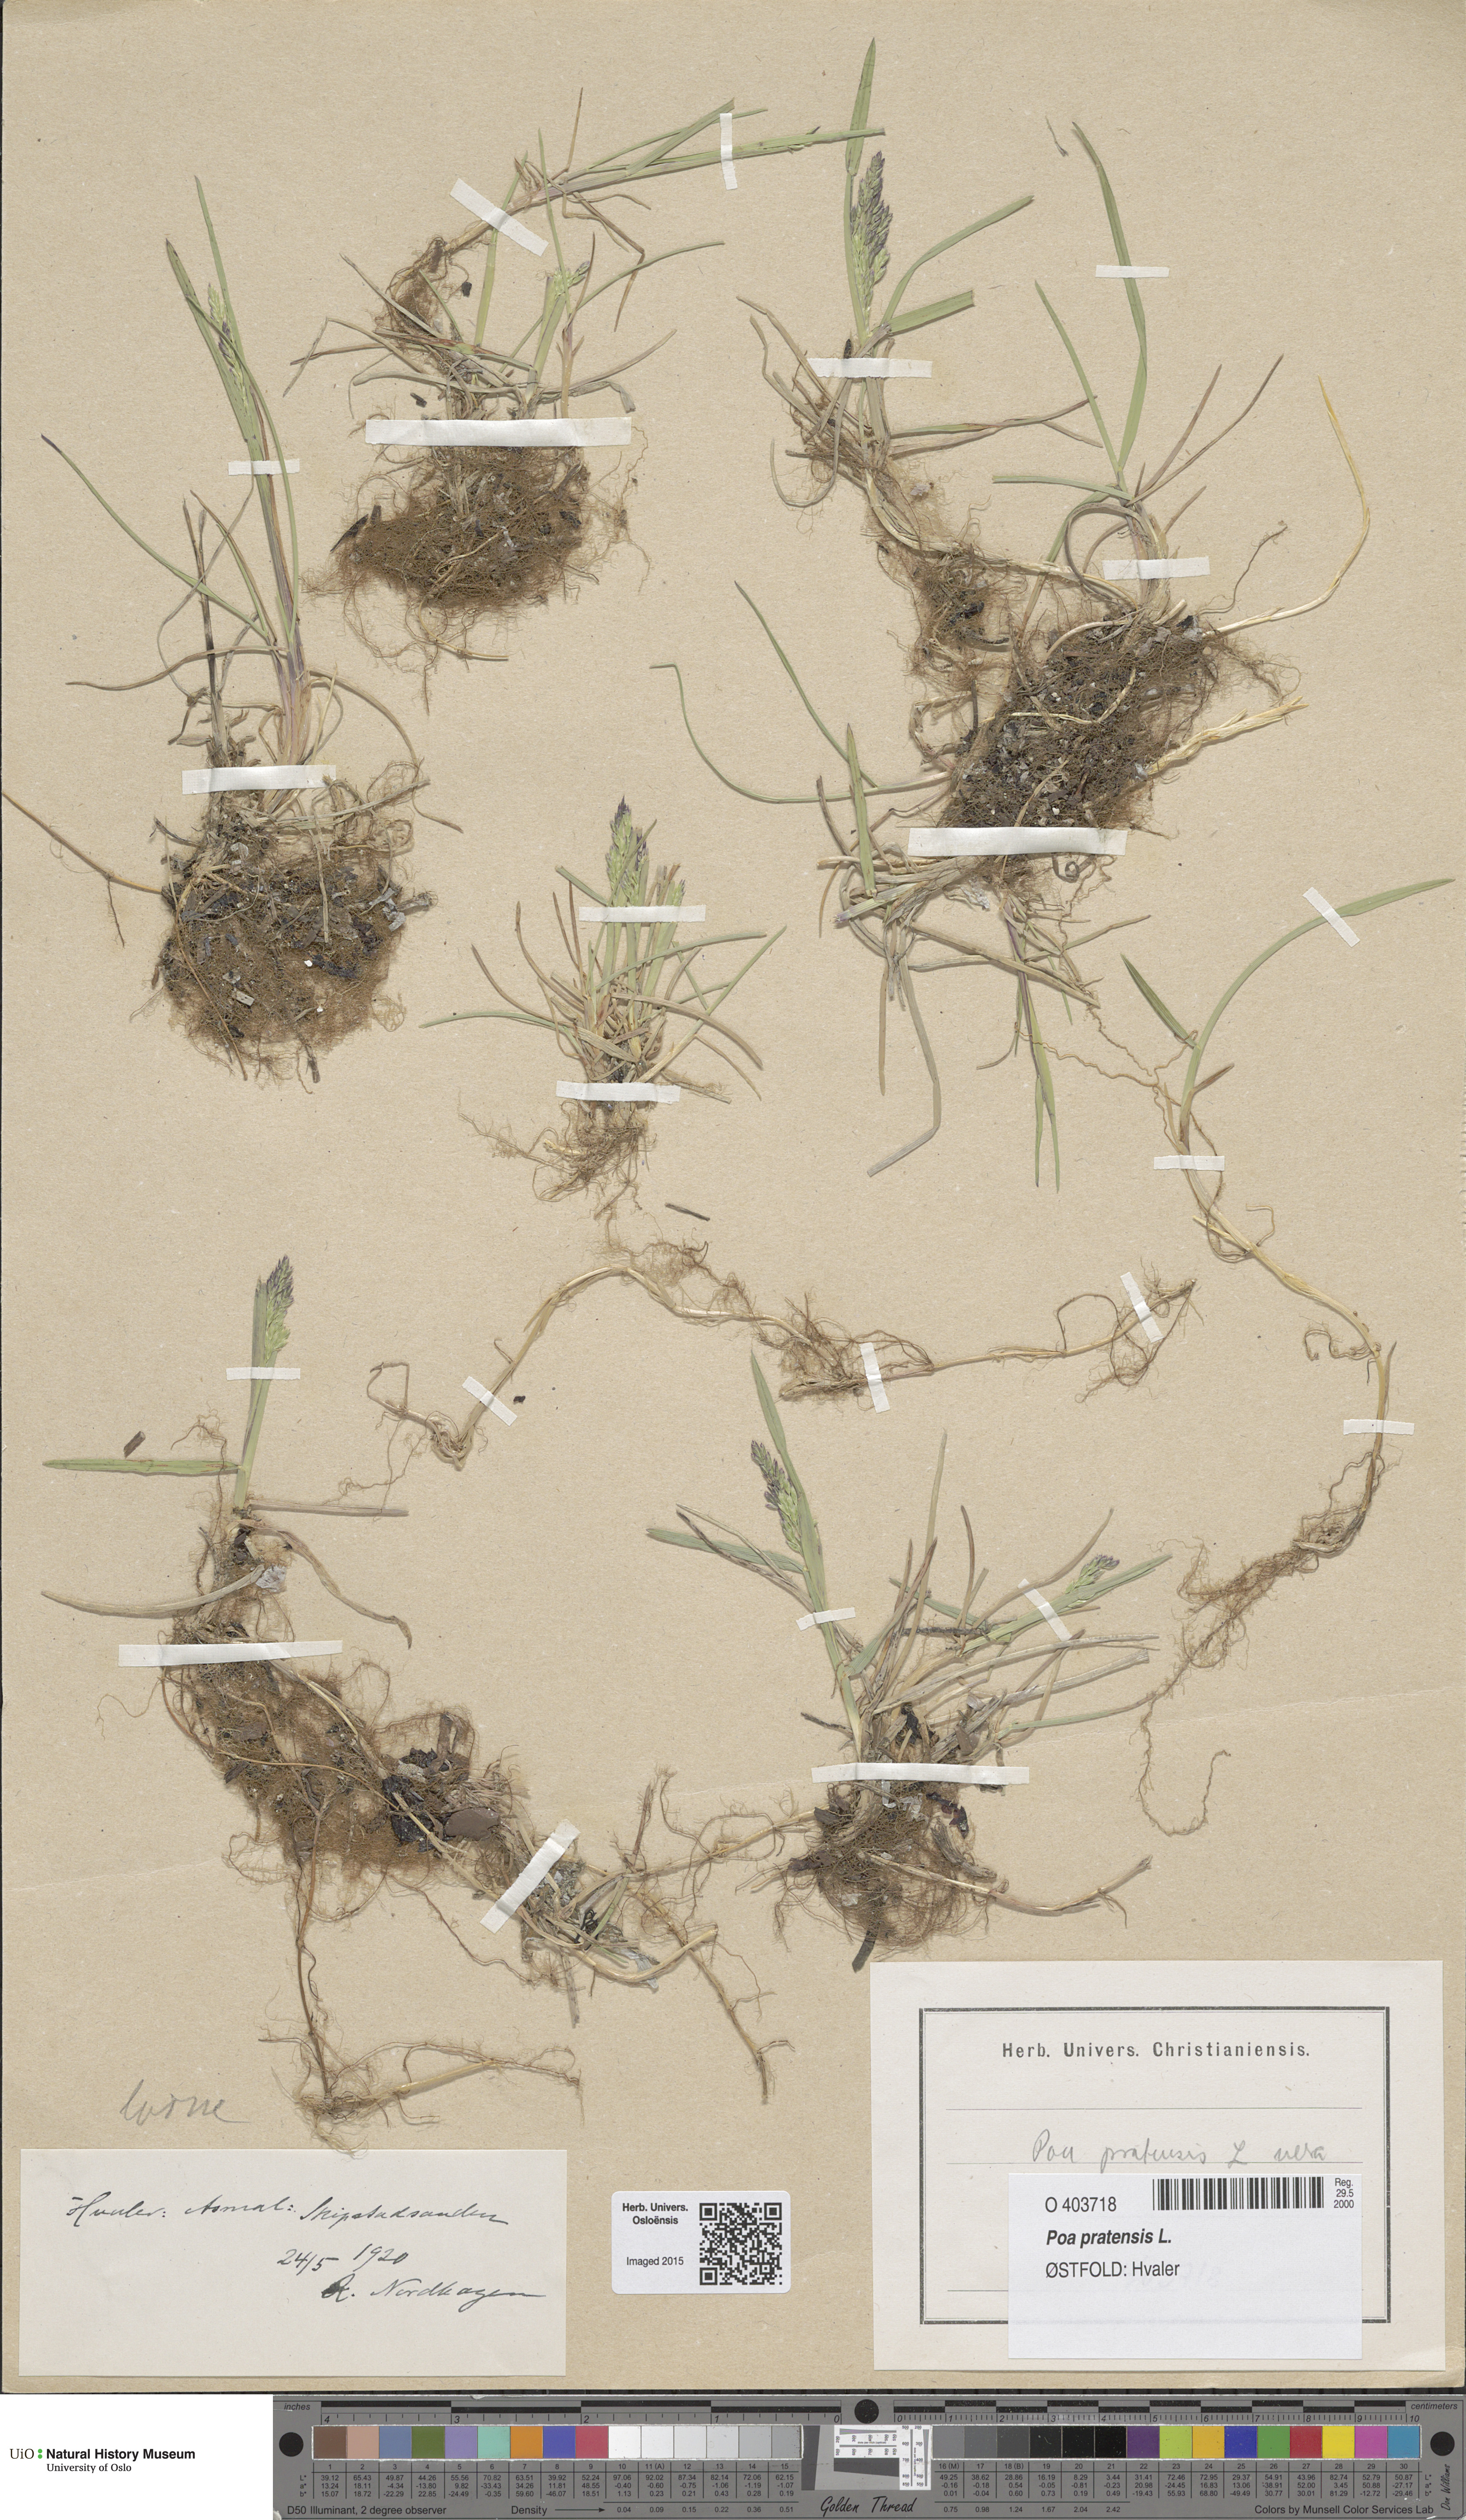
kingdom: Plantae
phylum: Tracheophyta
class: Liliopsida
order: Poales
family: Poaceae
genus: Poa
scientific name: Poa pratensis
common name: Kentucky bluegrass
